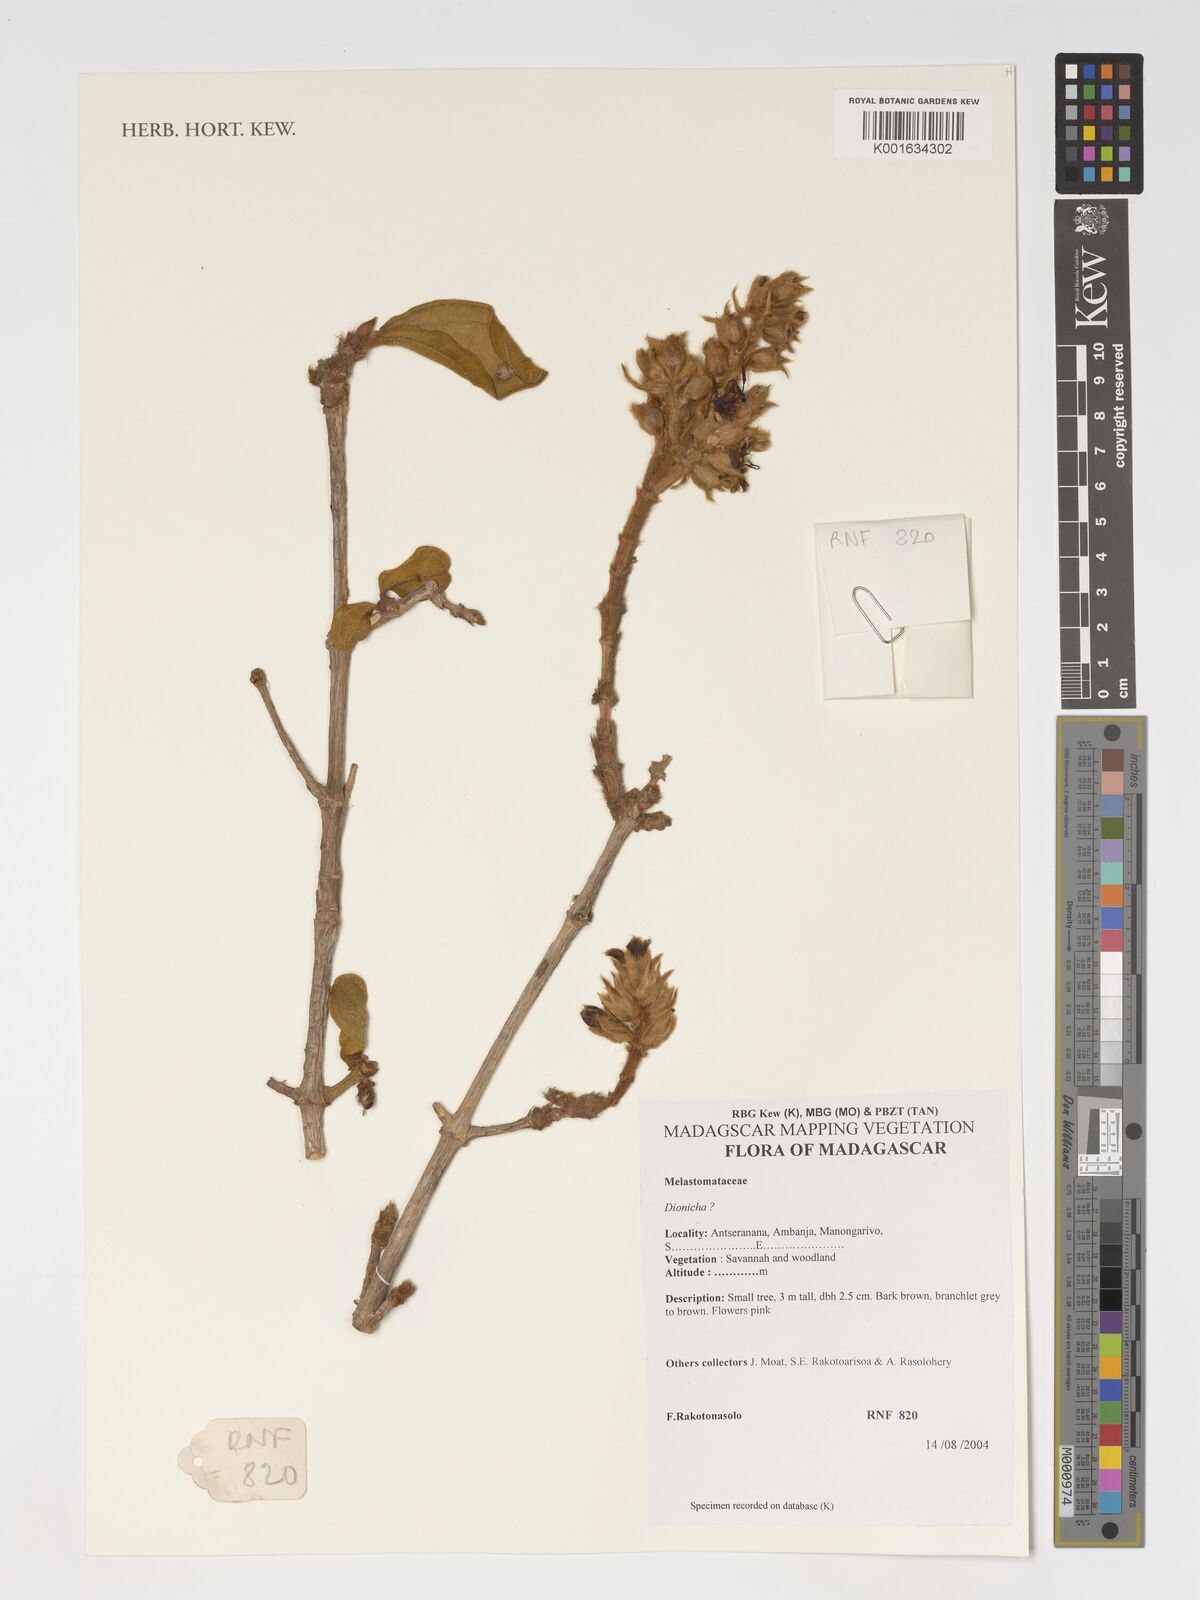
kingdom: Plantae
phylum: Tracheophyta
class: Magnoliopsida
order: Myrtales
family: Melastomataceae
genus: Dionycha
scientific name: Dionycha
